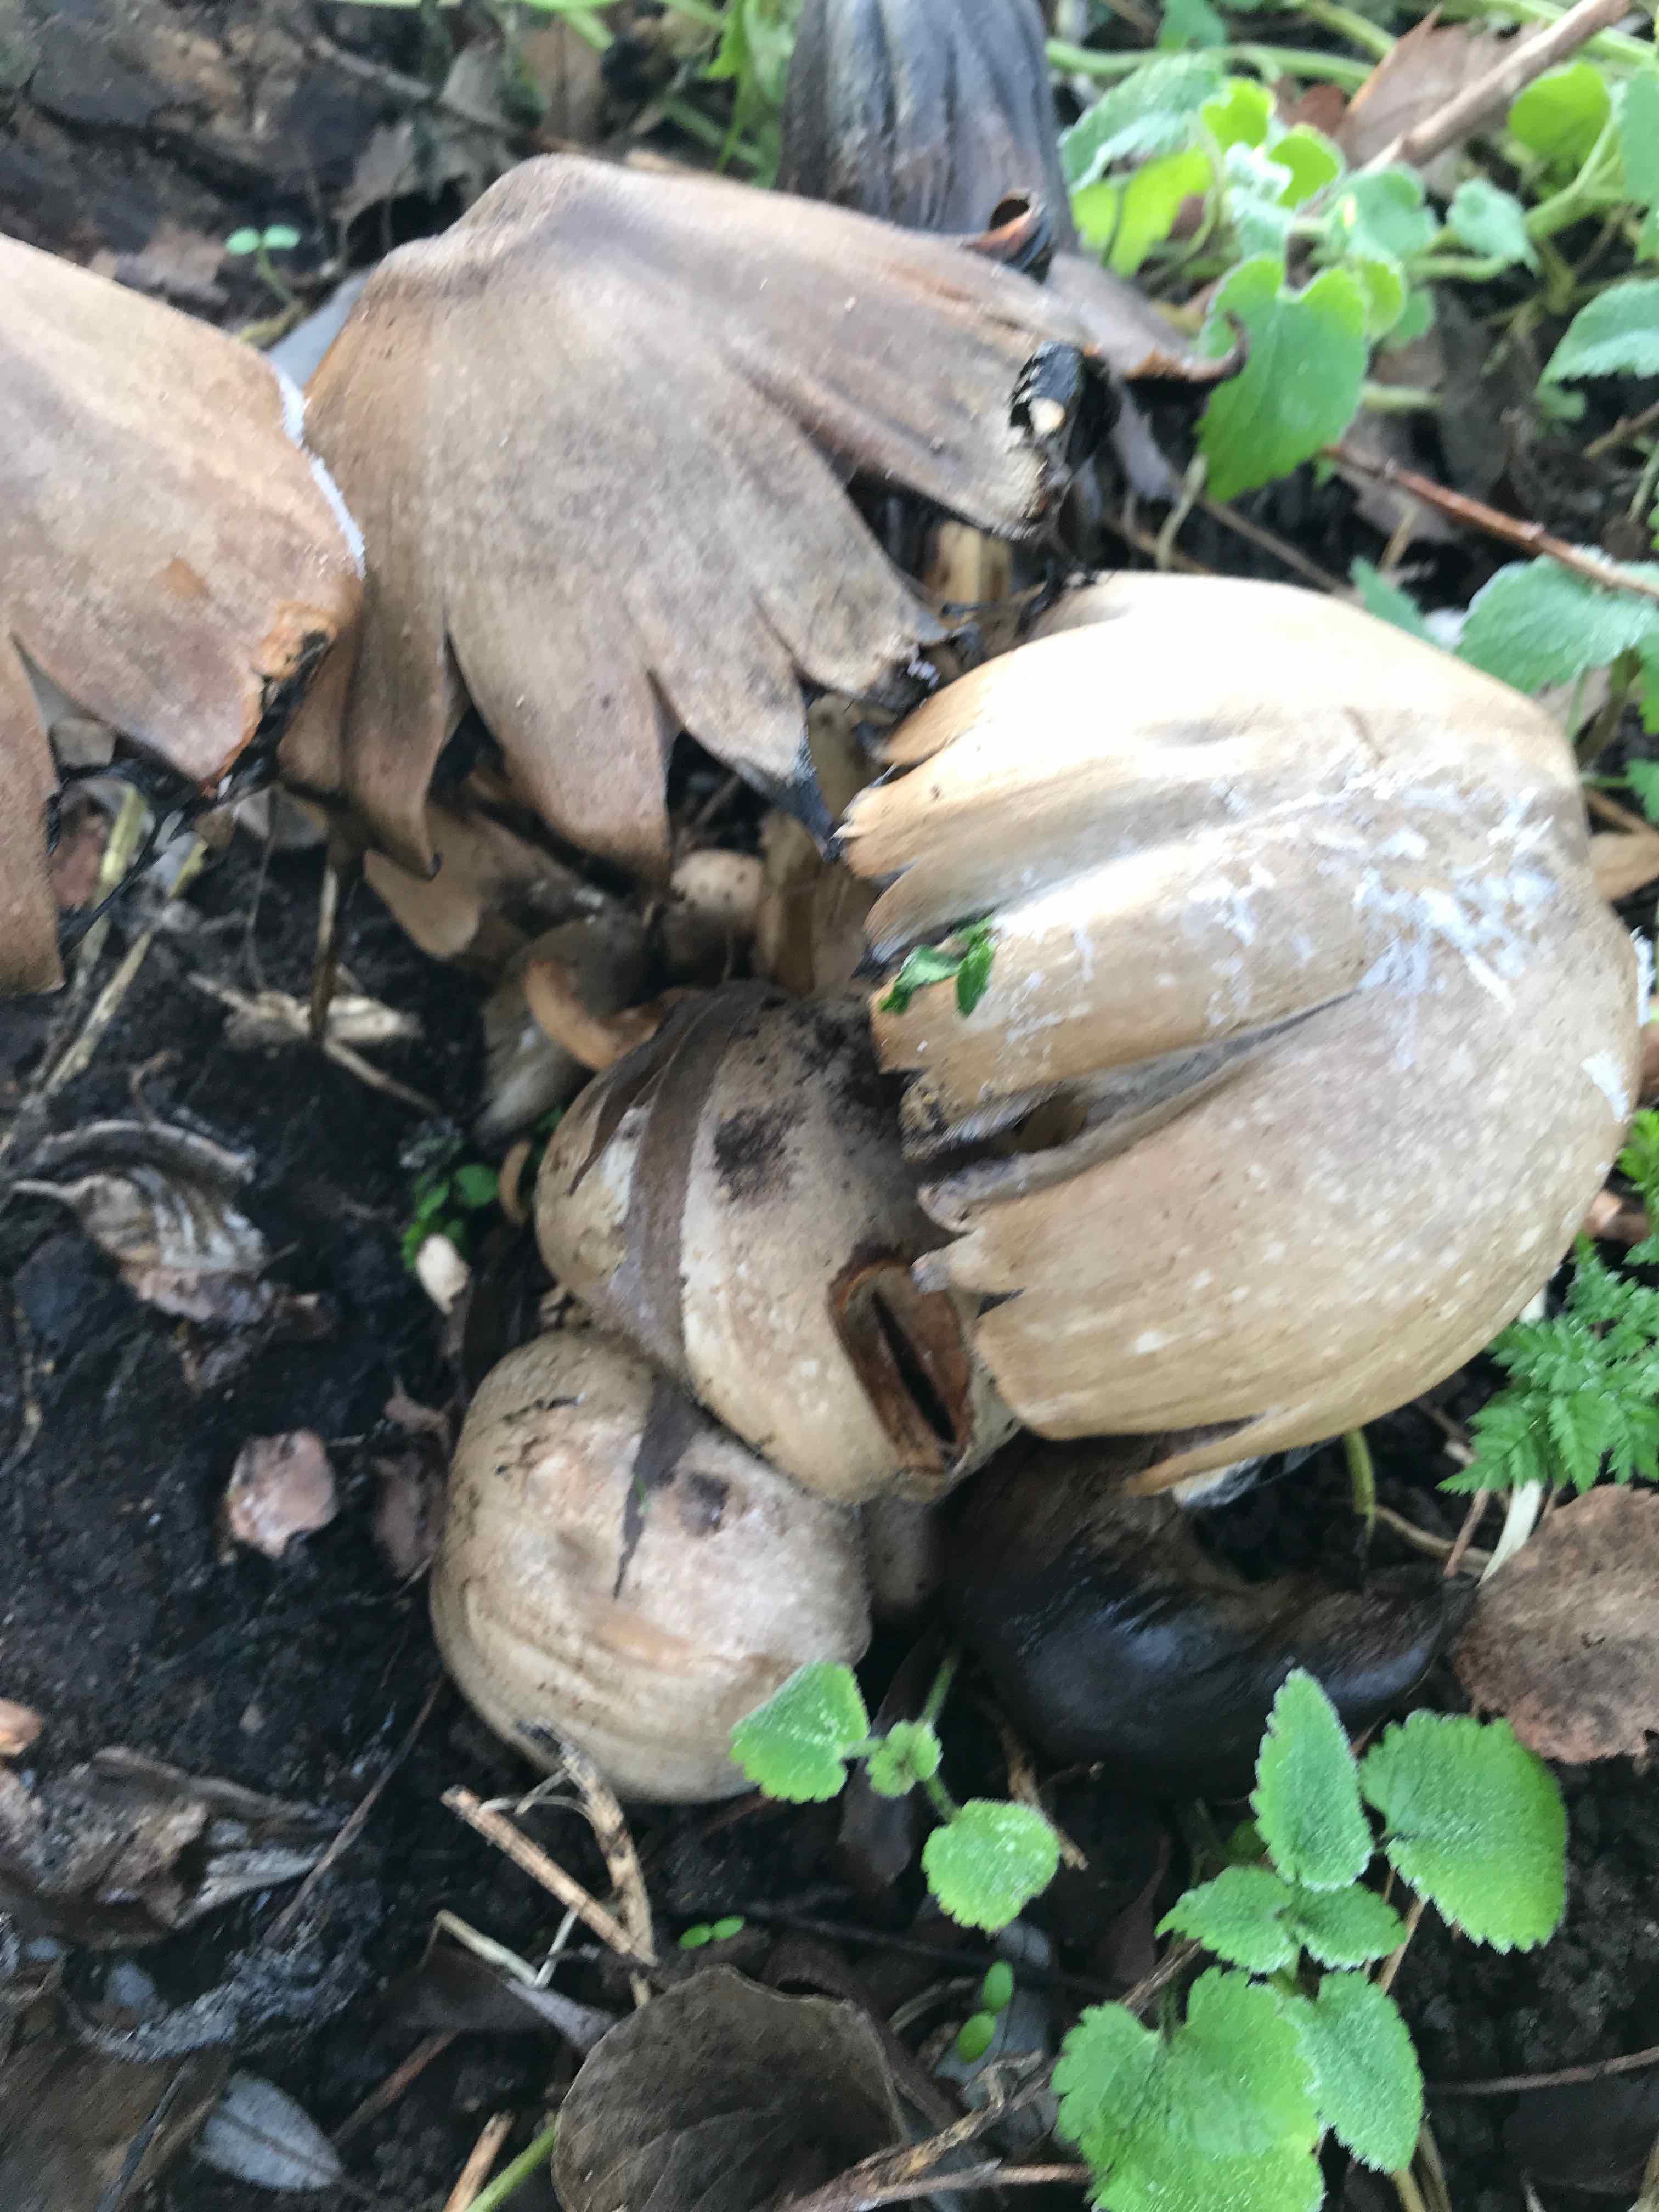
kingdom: Fungi
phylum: Basidiomycota
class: Agaricomycetes
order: Agaricales
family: Psathyrellaceae
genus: Coprinopsis
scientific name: Coprinopsis atramentaria
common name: almindelig blækhat
